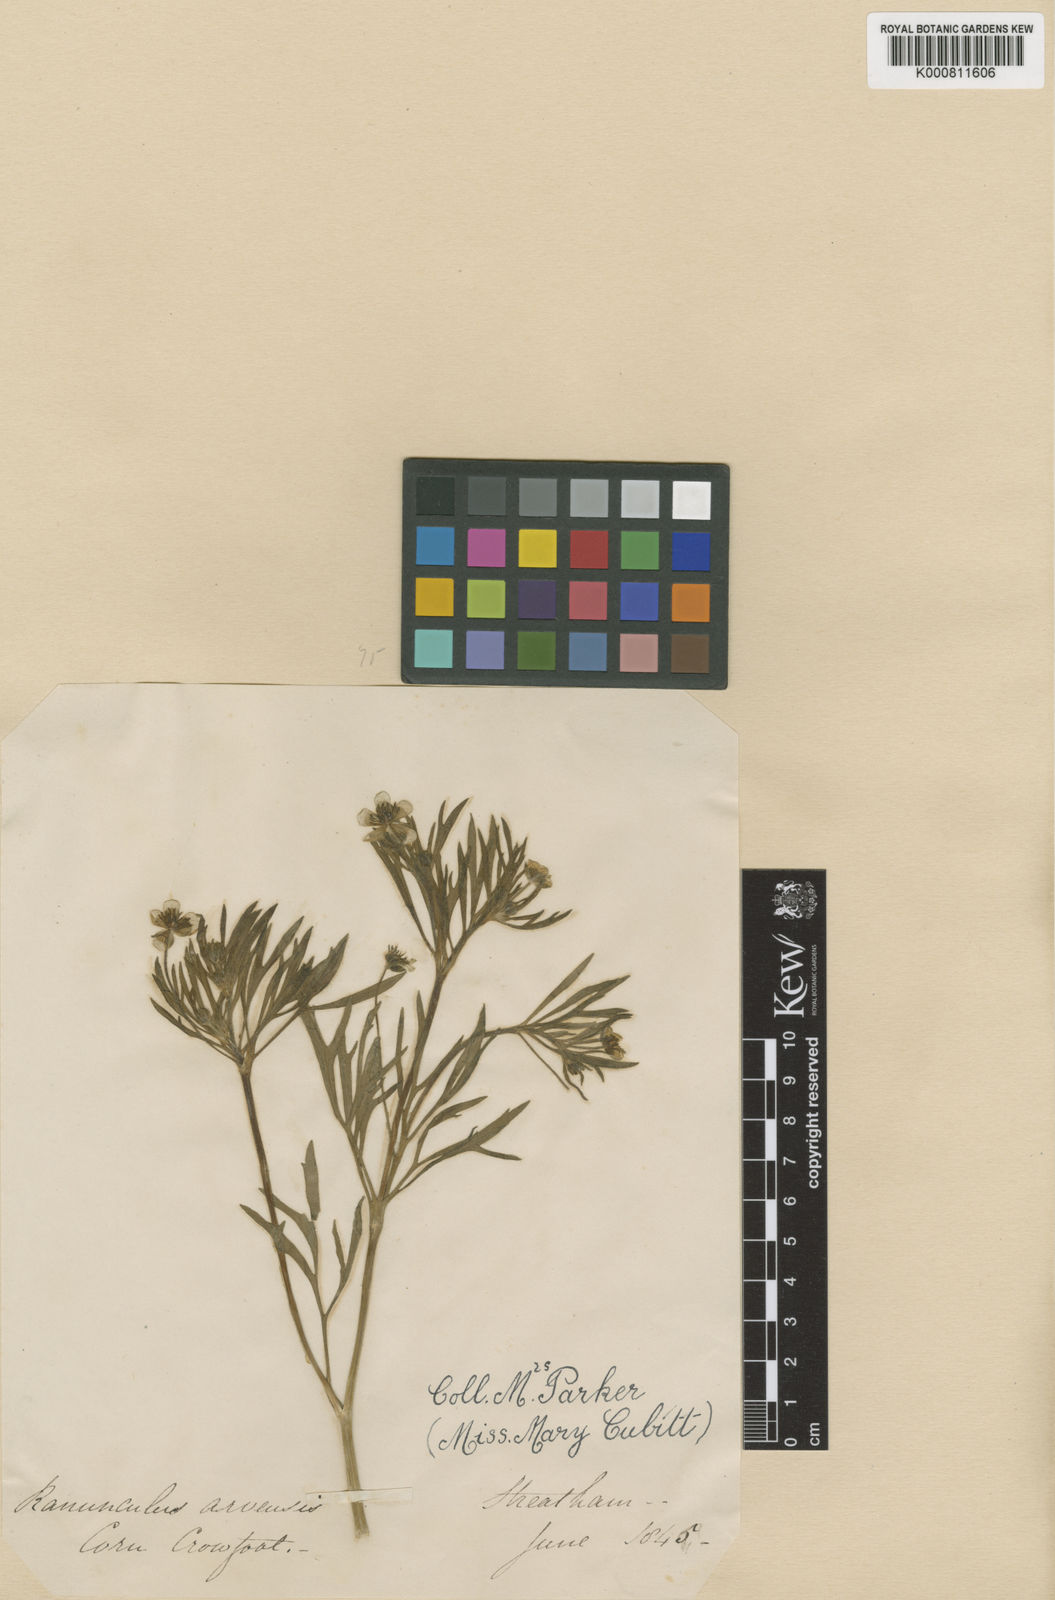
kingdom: Plantae
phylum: Tracheophyta
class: Magnoliopsida
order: Ranunculales
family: Ranunculaceae
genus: Ranunculus
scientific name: Ranunculus arvensis
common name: Corn buttercup
